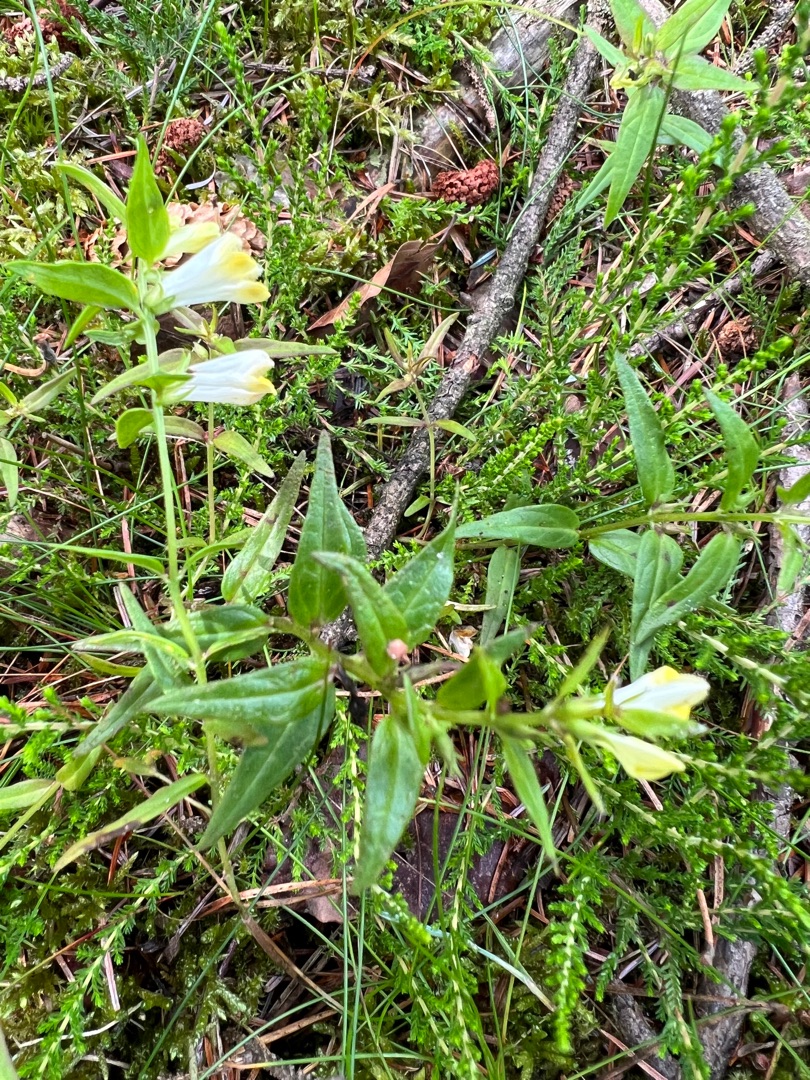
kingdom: Plantae
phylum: Tracheophyta
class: Magnoliopsida
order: Lamiales
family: Orobanchaceae
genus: Melampyrum
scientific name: Melampyrum pratense
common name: Almindelig kohvede
